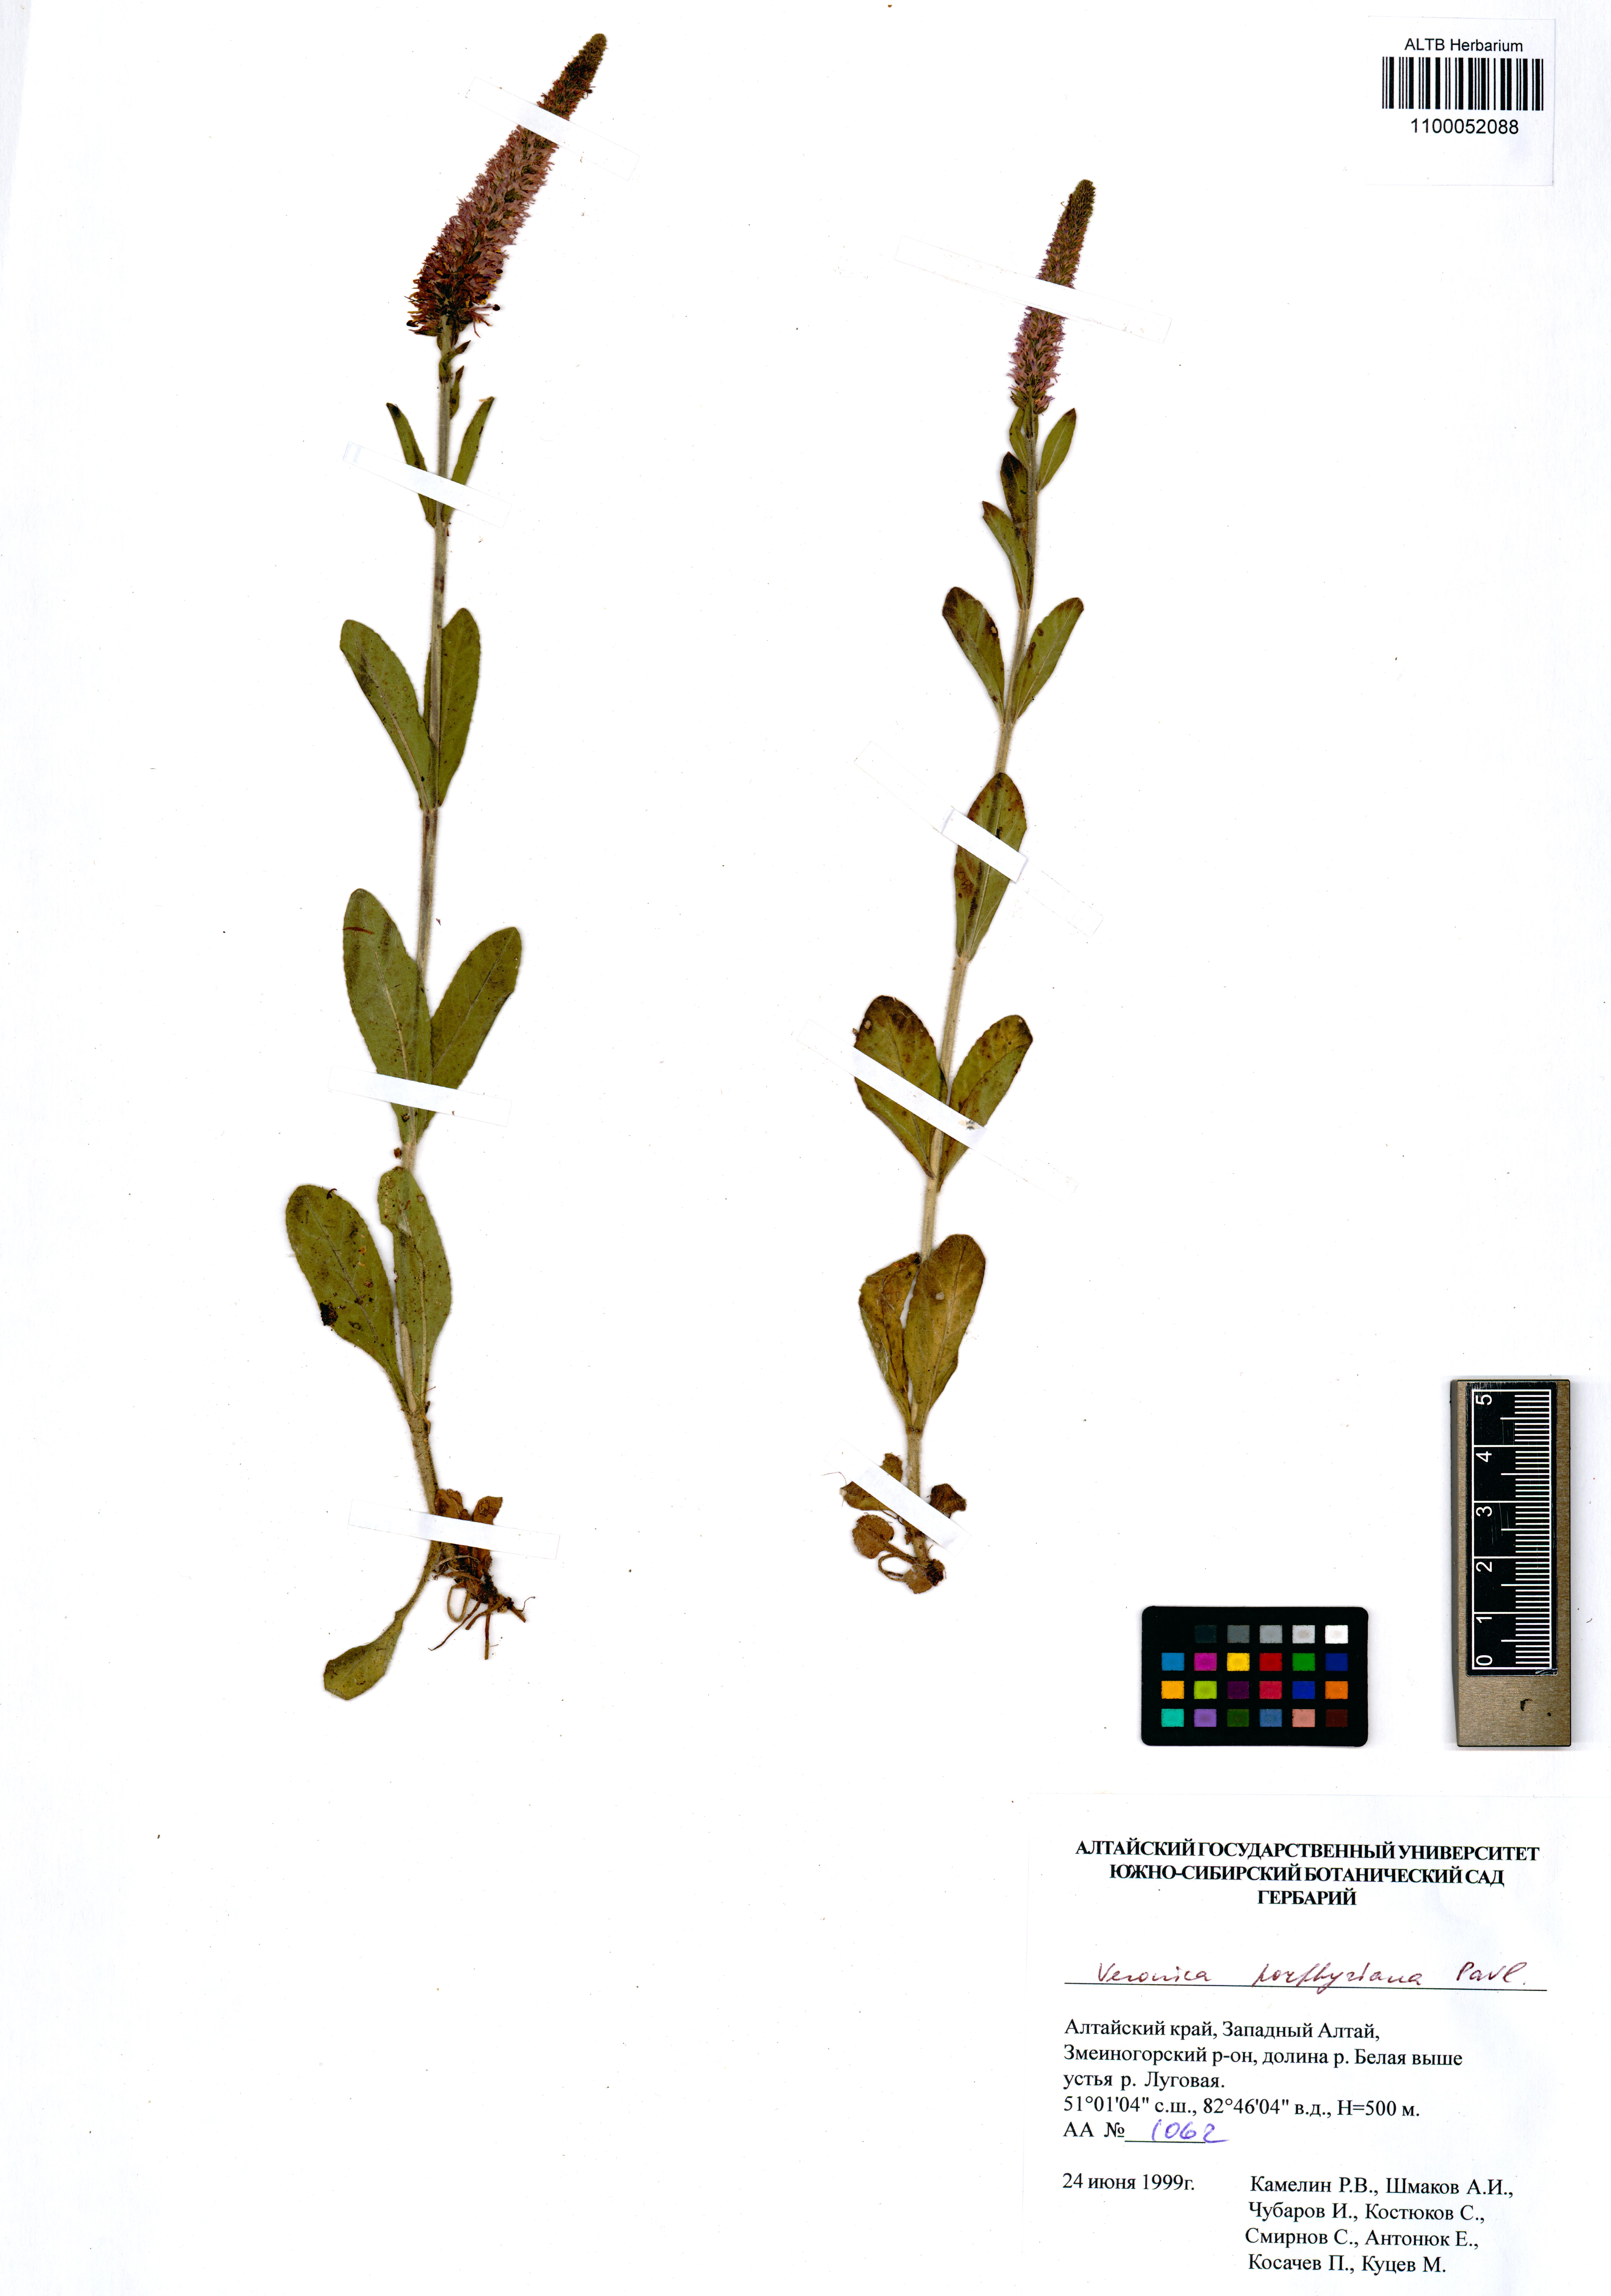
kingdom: Plantae
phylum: Tracheophyta
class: Magnoliopsida
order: Lamiales
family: Plantaginaceae
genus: Veronica
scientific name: Veronica porphyriana
